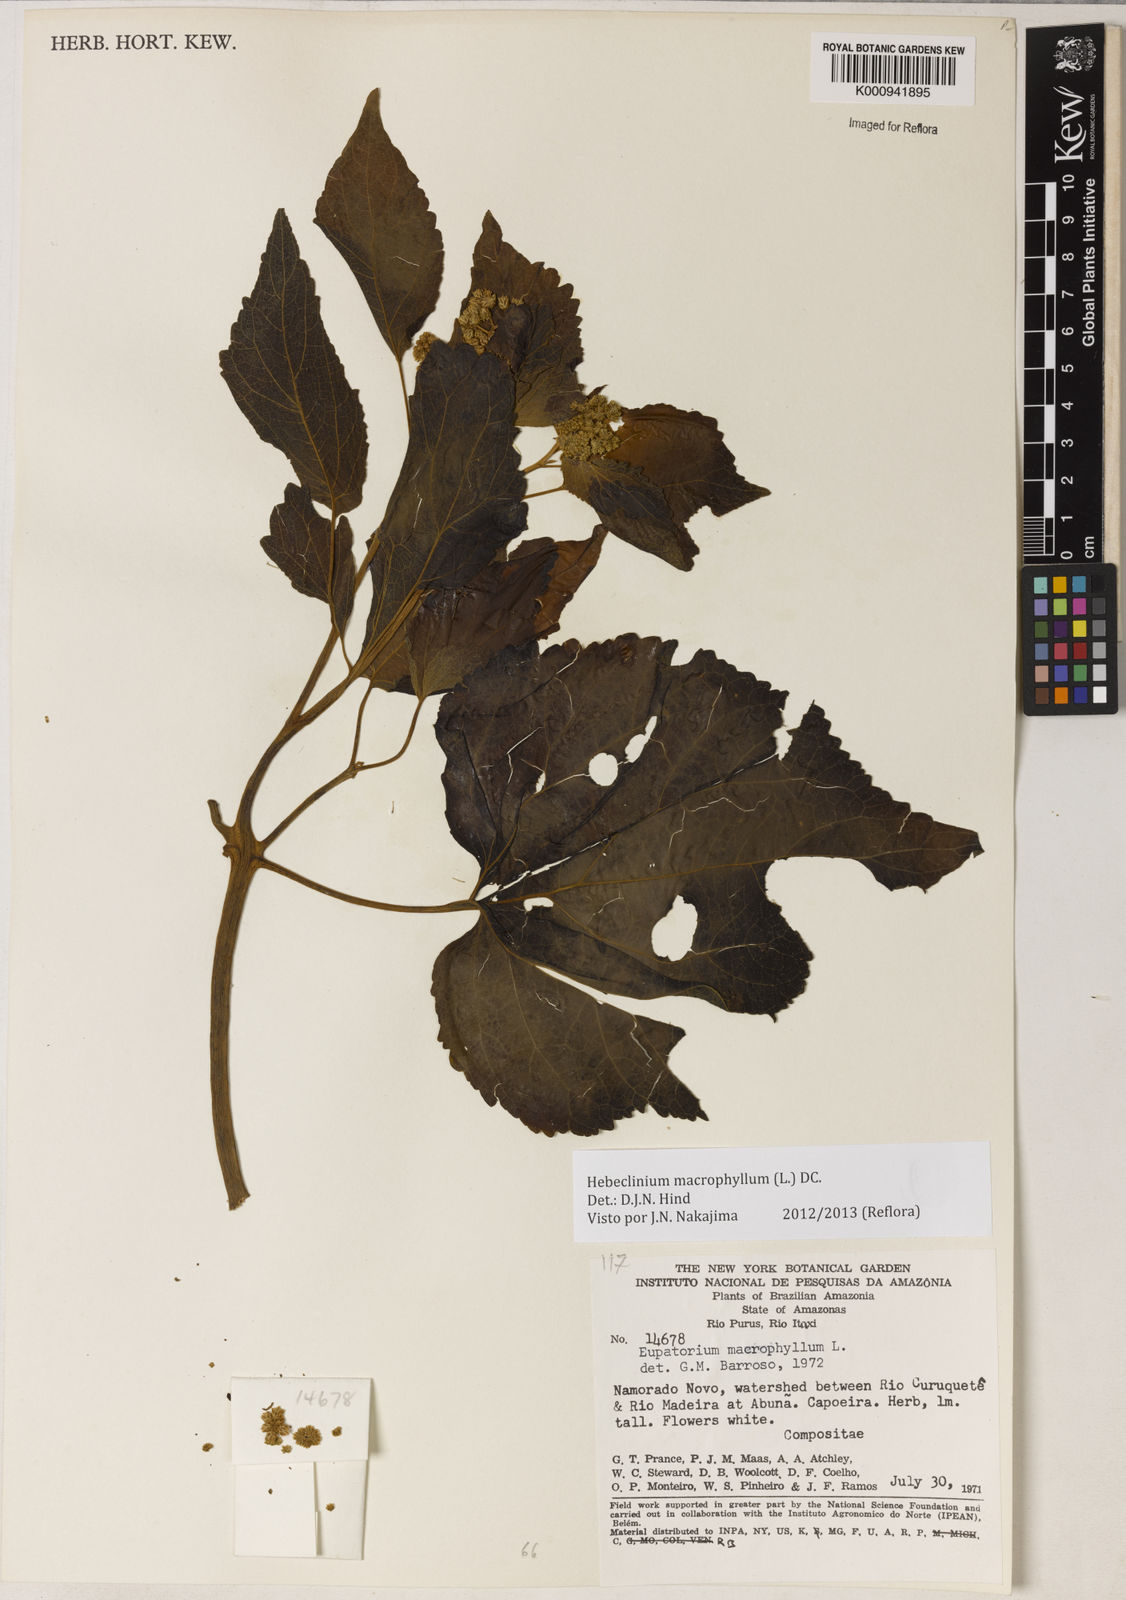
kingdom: Plantae
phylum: Tracheophyta
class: Magnoliopsida
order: Asterales
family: Asteraceae
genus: Hebeclinium
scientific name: Hebeclinium macrophyllum
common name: Largeleaf thoroughwort
